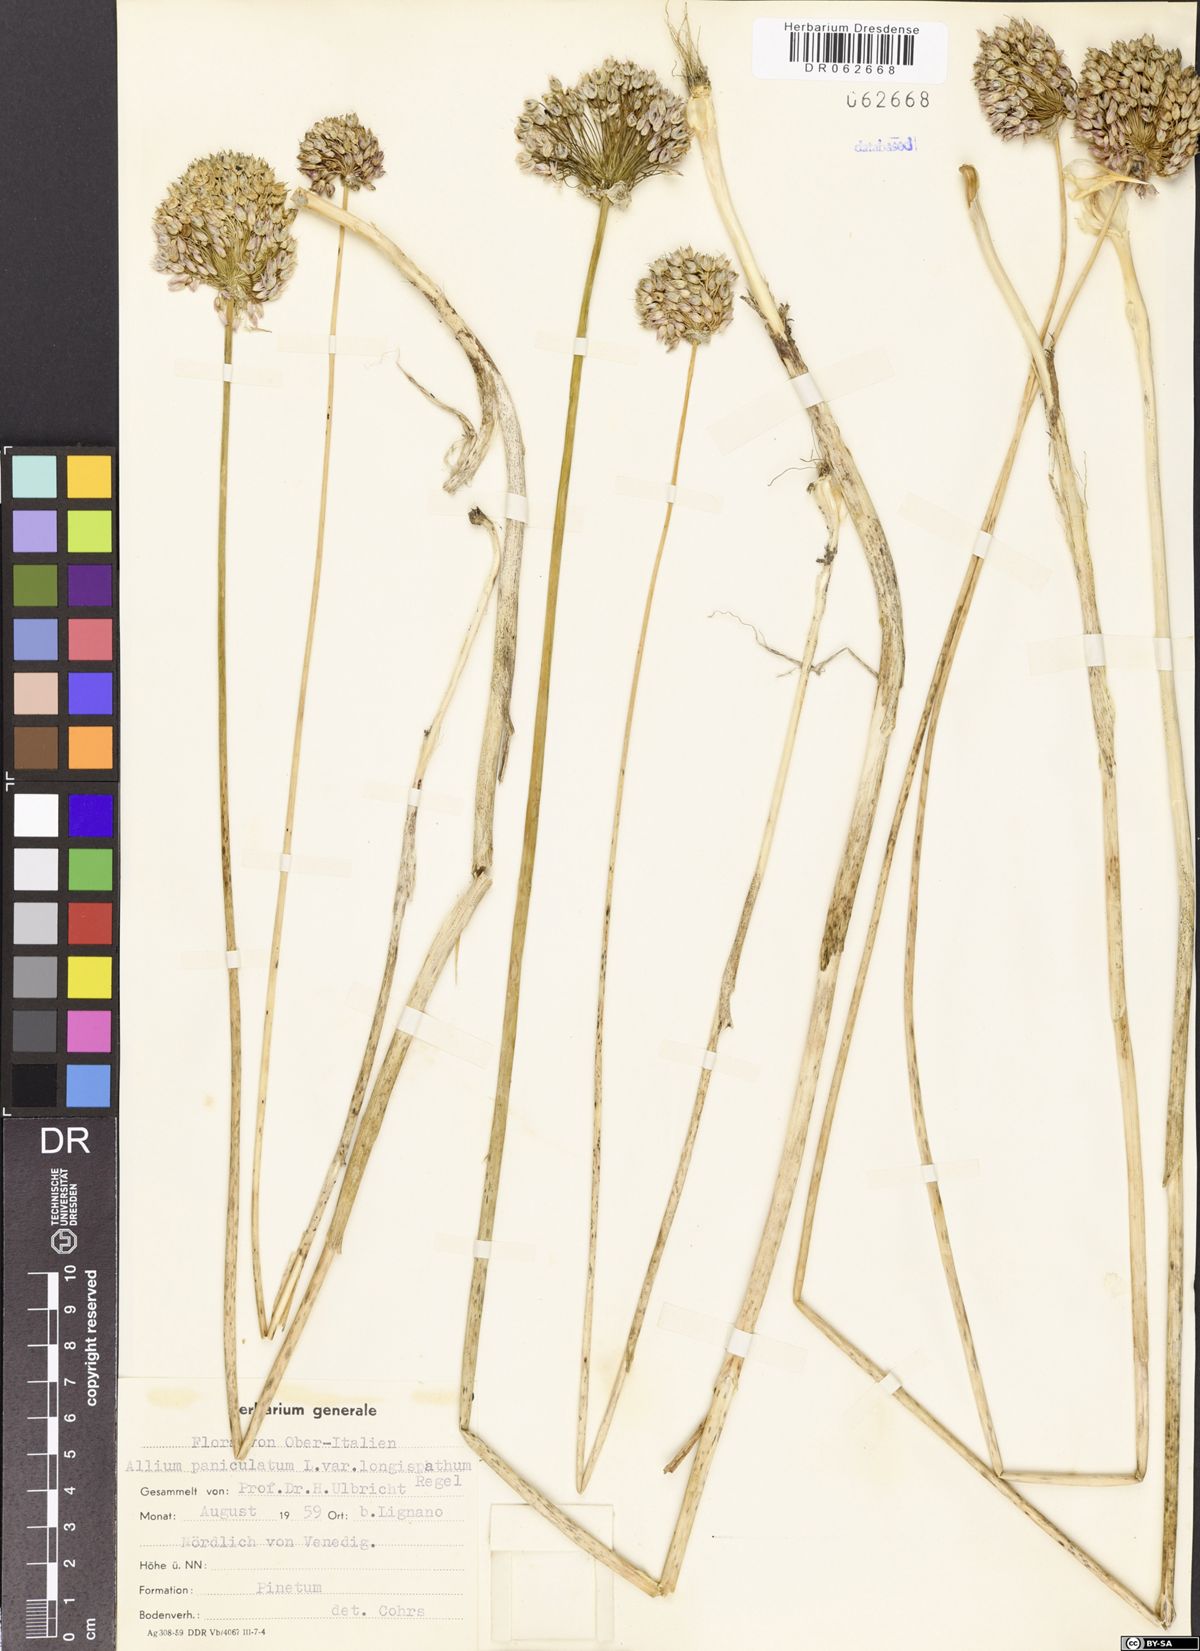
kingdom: Plantae
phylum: Tracheophyta
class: Liliopsida
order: Asparagales
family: Amaryllidaceae
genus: Allium
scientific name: Allium paniculatum
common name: Pale garlic
